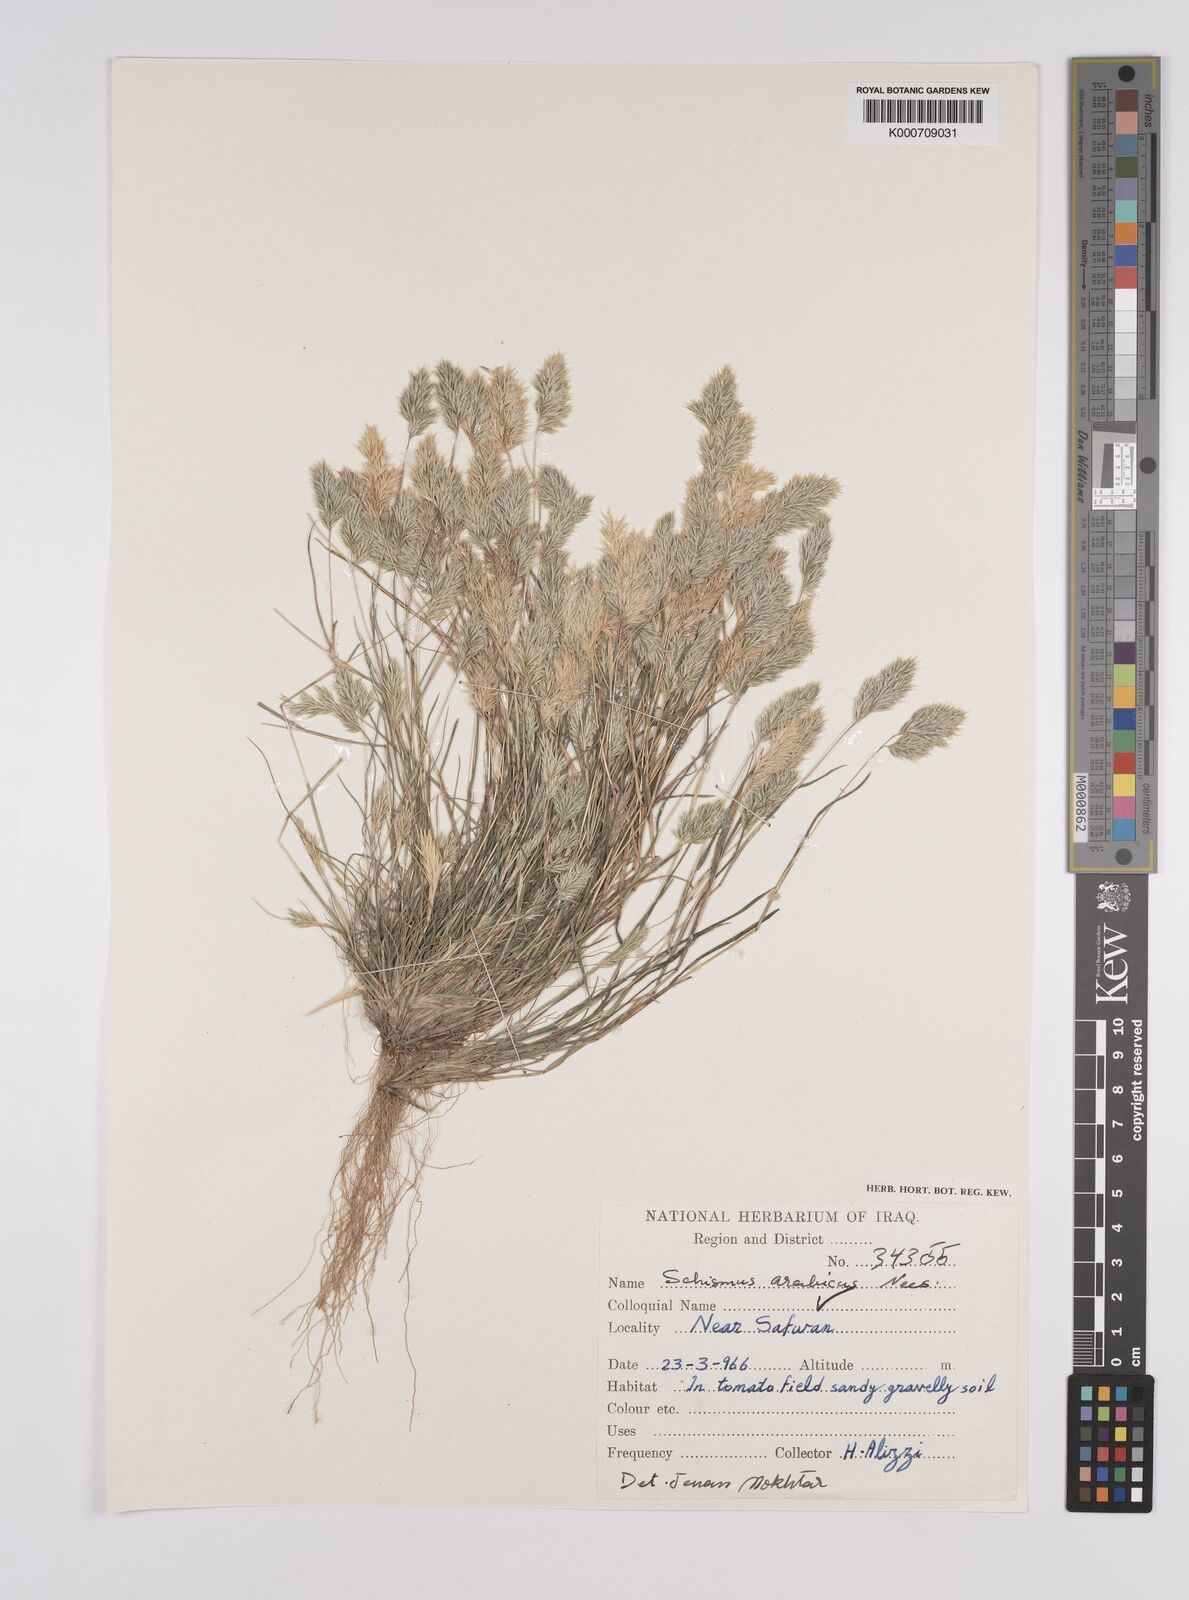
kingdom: Plantae
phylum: Tracheophyta
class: Liliopsida
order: Poales
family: Poaceae
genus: Schismus
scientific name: Schismus arabicus
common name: Arabian schismus
